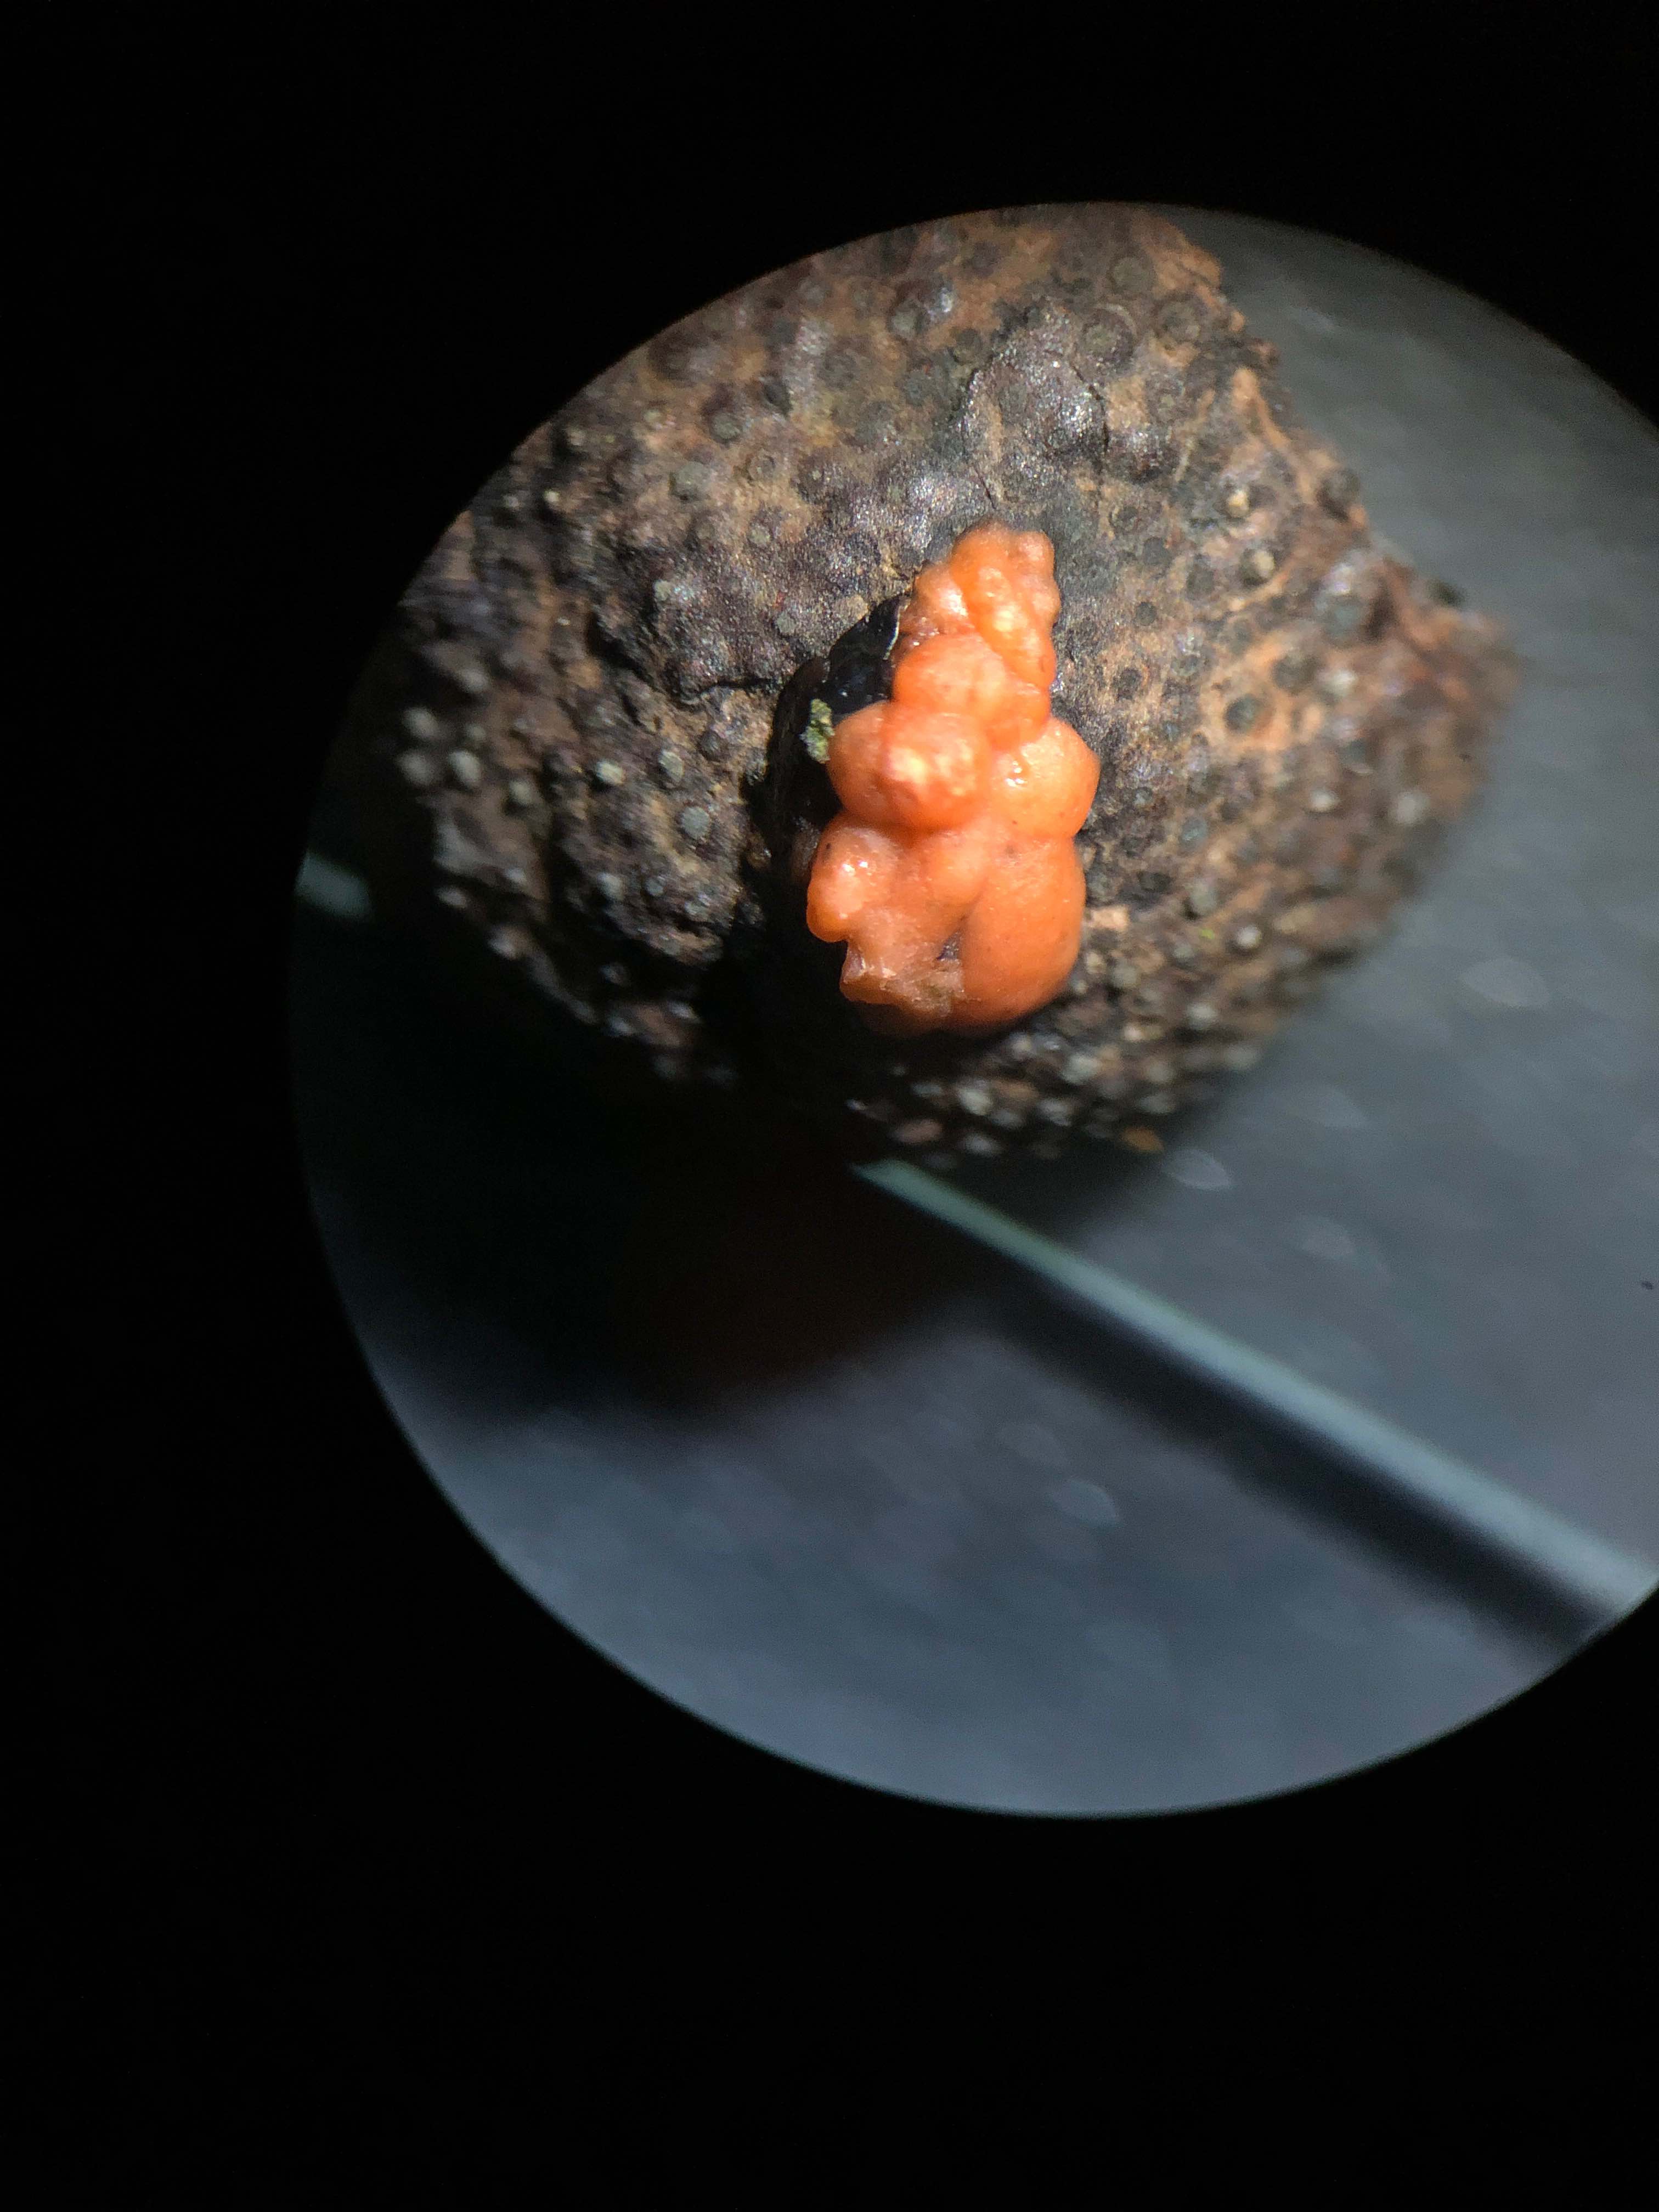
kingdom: Fungi
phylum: Ascomycota
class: Sordariomycetes
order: Hypocreales
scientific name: Hypocreales
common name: kødkerneordenen
